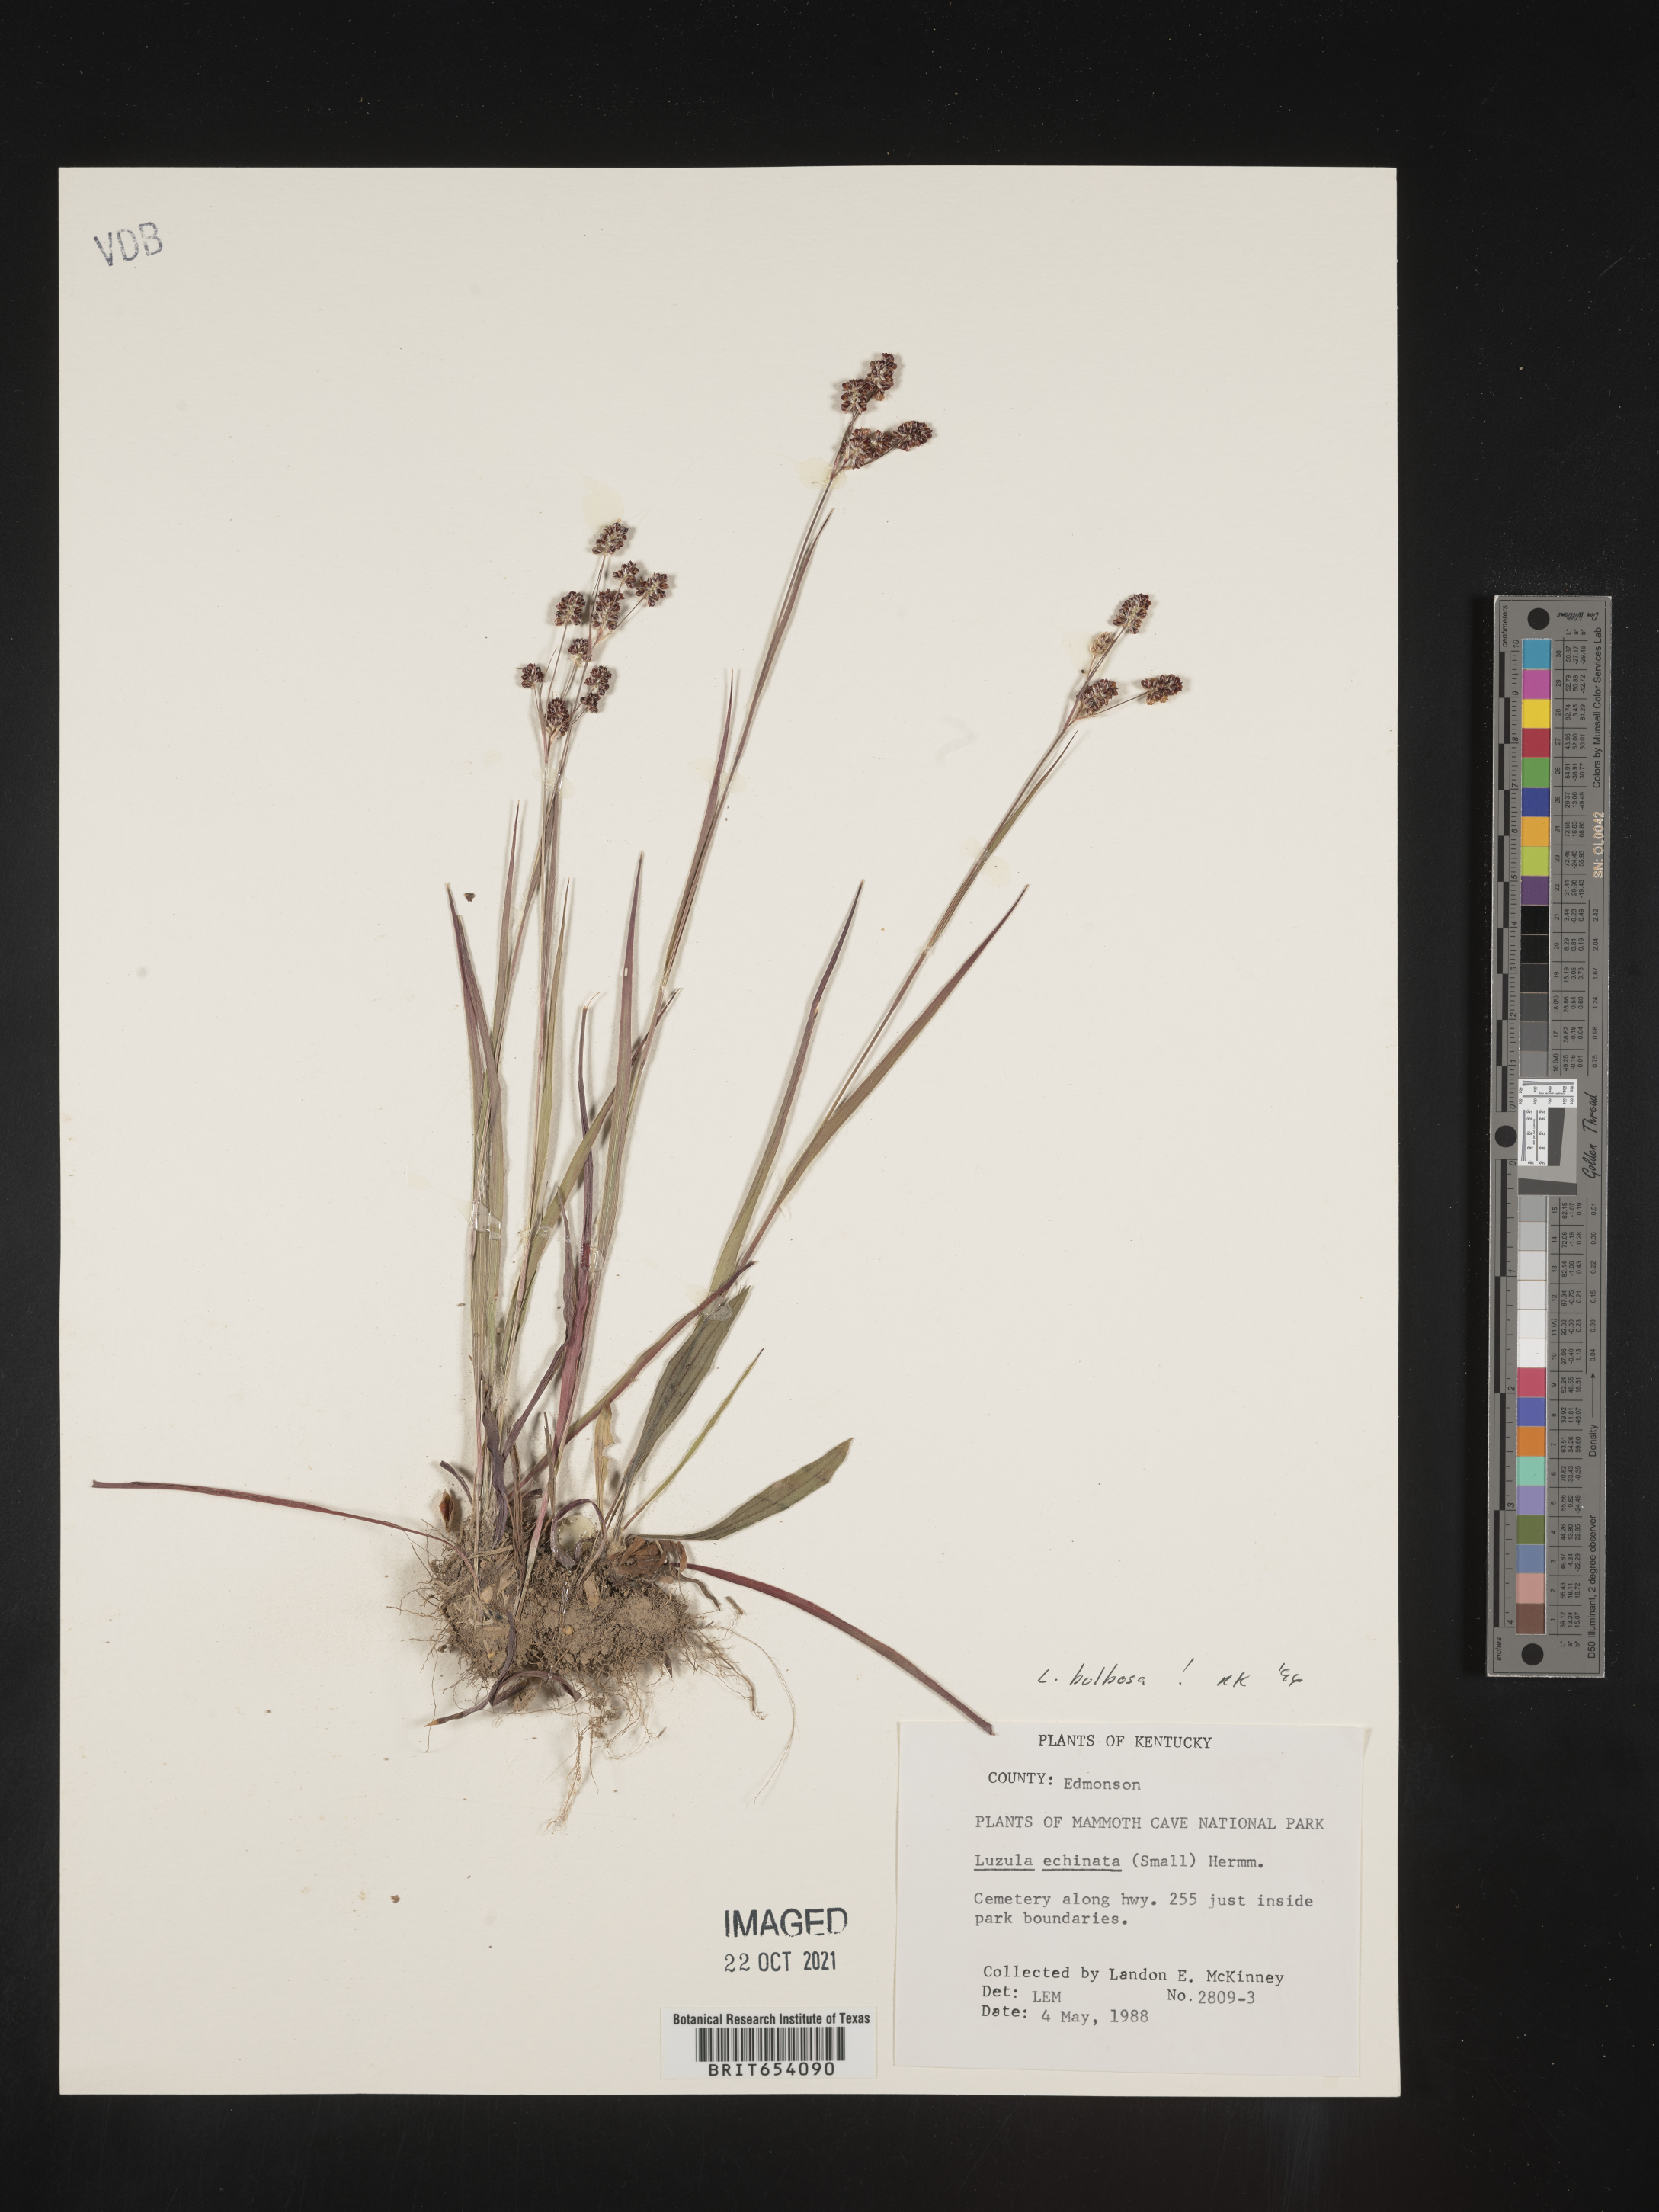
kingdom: Plantae
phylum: Tracheophyta
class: Liliopsida
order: Poales
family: Juncaceae
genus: Luzula
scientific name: Luzula bulbosa
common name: Bulbous woodrush
